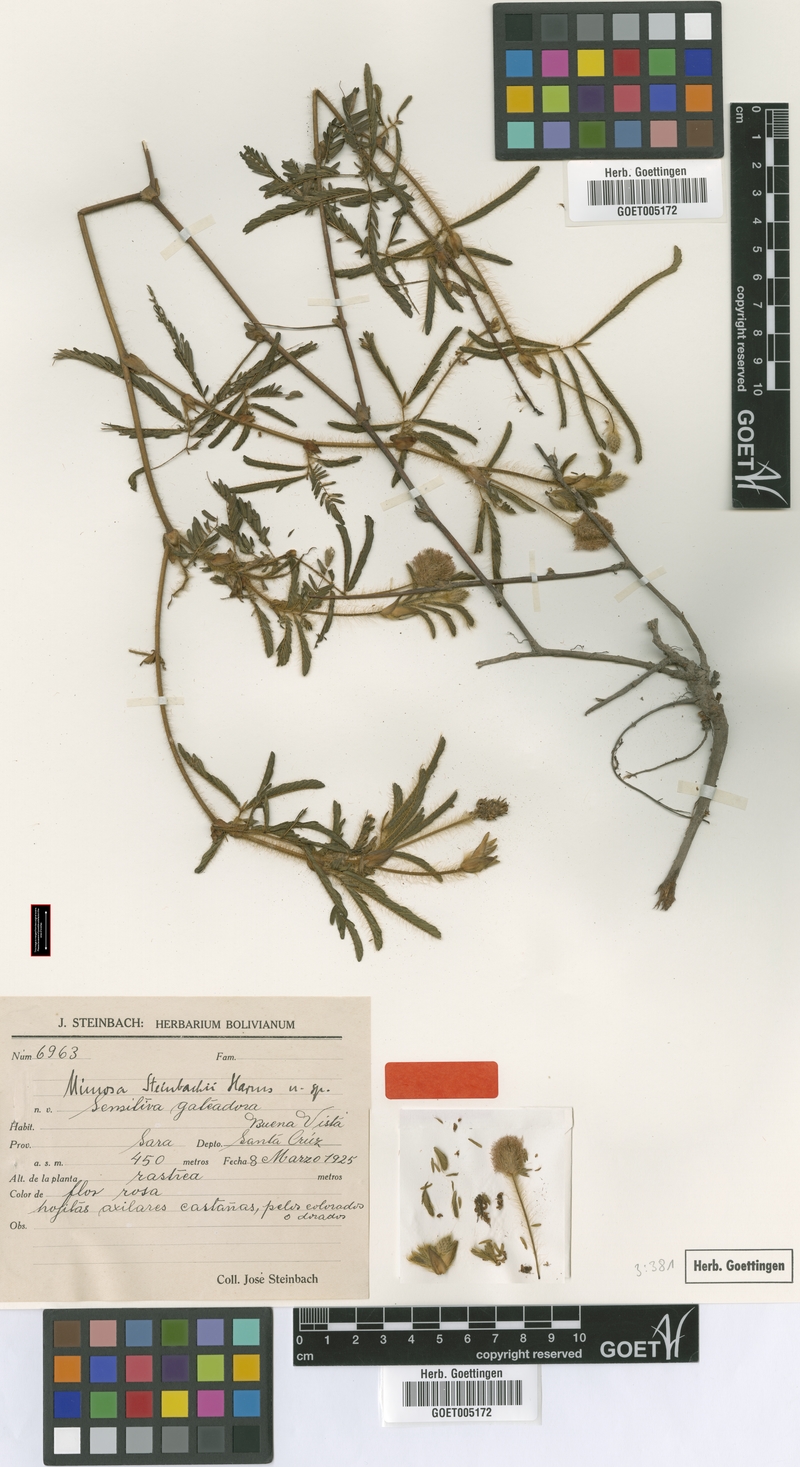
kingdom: Plantae
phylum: Tracheophyta
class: Magnoliopsida
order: Fabales
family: Fabaceae
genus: Mimosa
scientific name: Mimosa neptunioides
